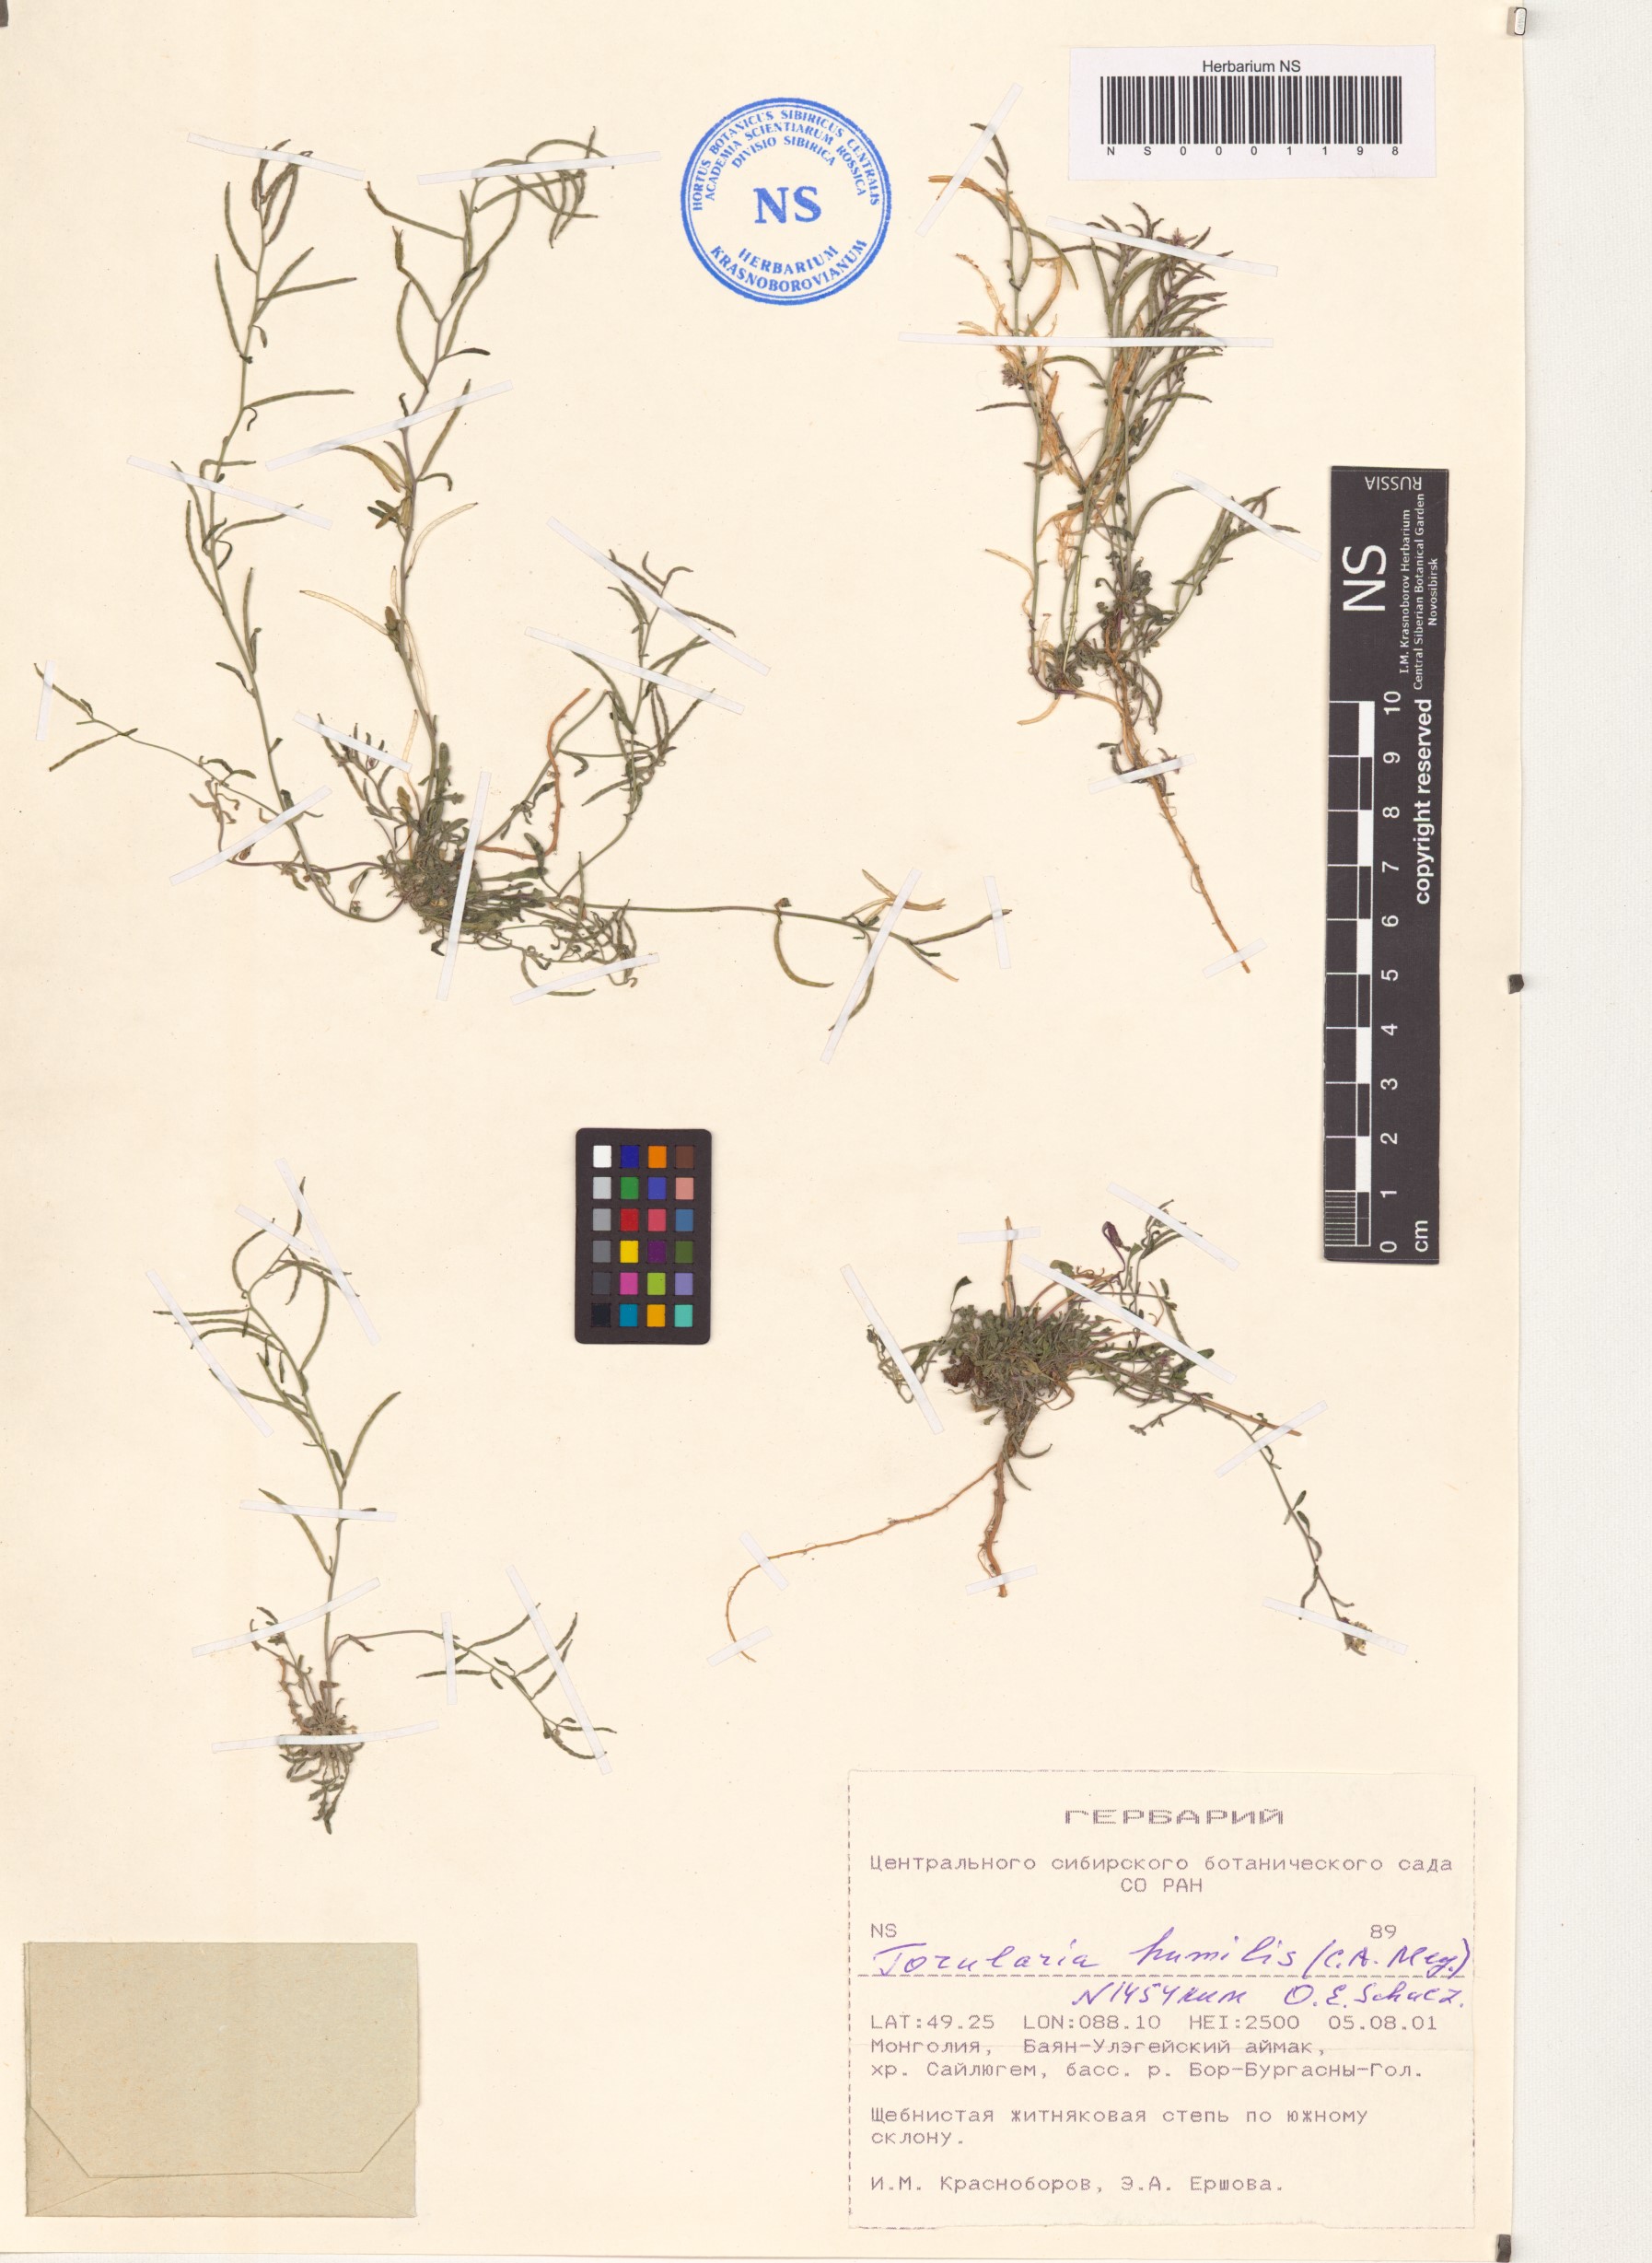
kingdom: Plantae
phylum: Tracheophyta
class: Magnoliopsida
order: Brassicales
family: Brassicaceae
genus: Braya
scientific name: Braya humilis
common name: Alpine northern rockcress
